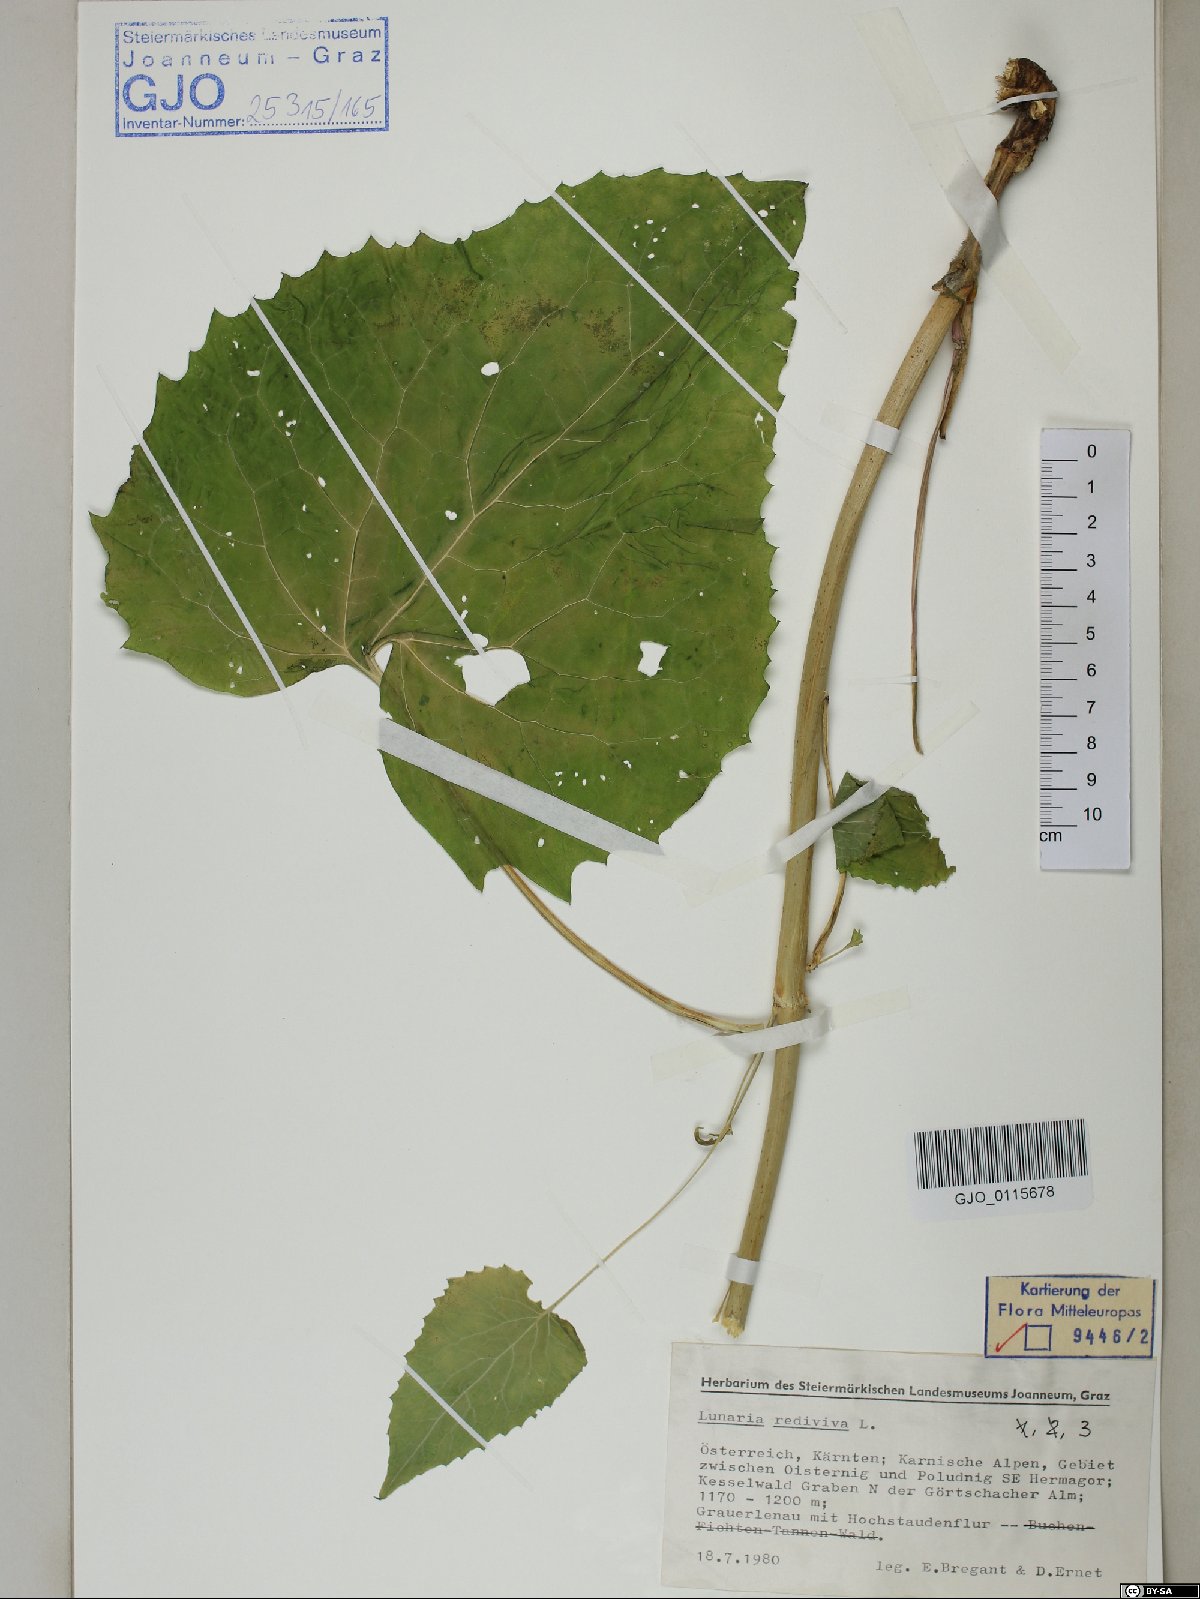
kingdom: Plantae
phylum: Tracheophyta
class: Magnoliopsida
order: Brassicales
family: Brassicaceae
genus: Lunaria
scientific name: Lunaria rediviva
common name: Perennial honesty
